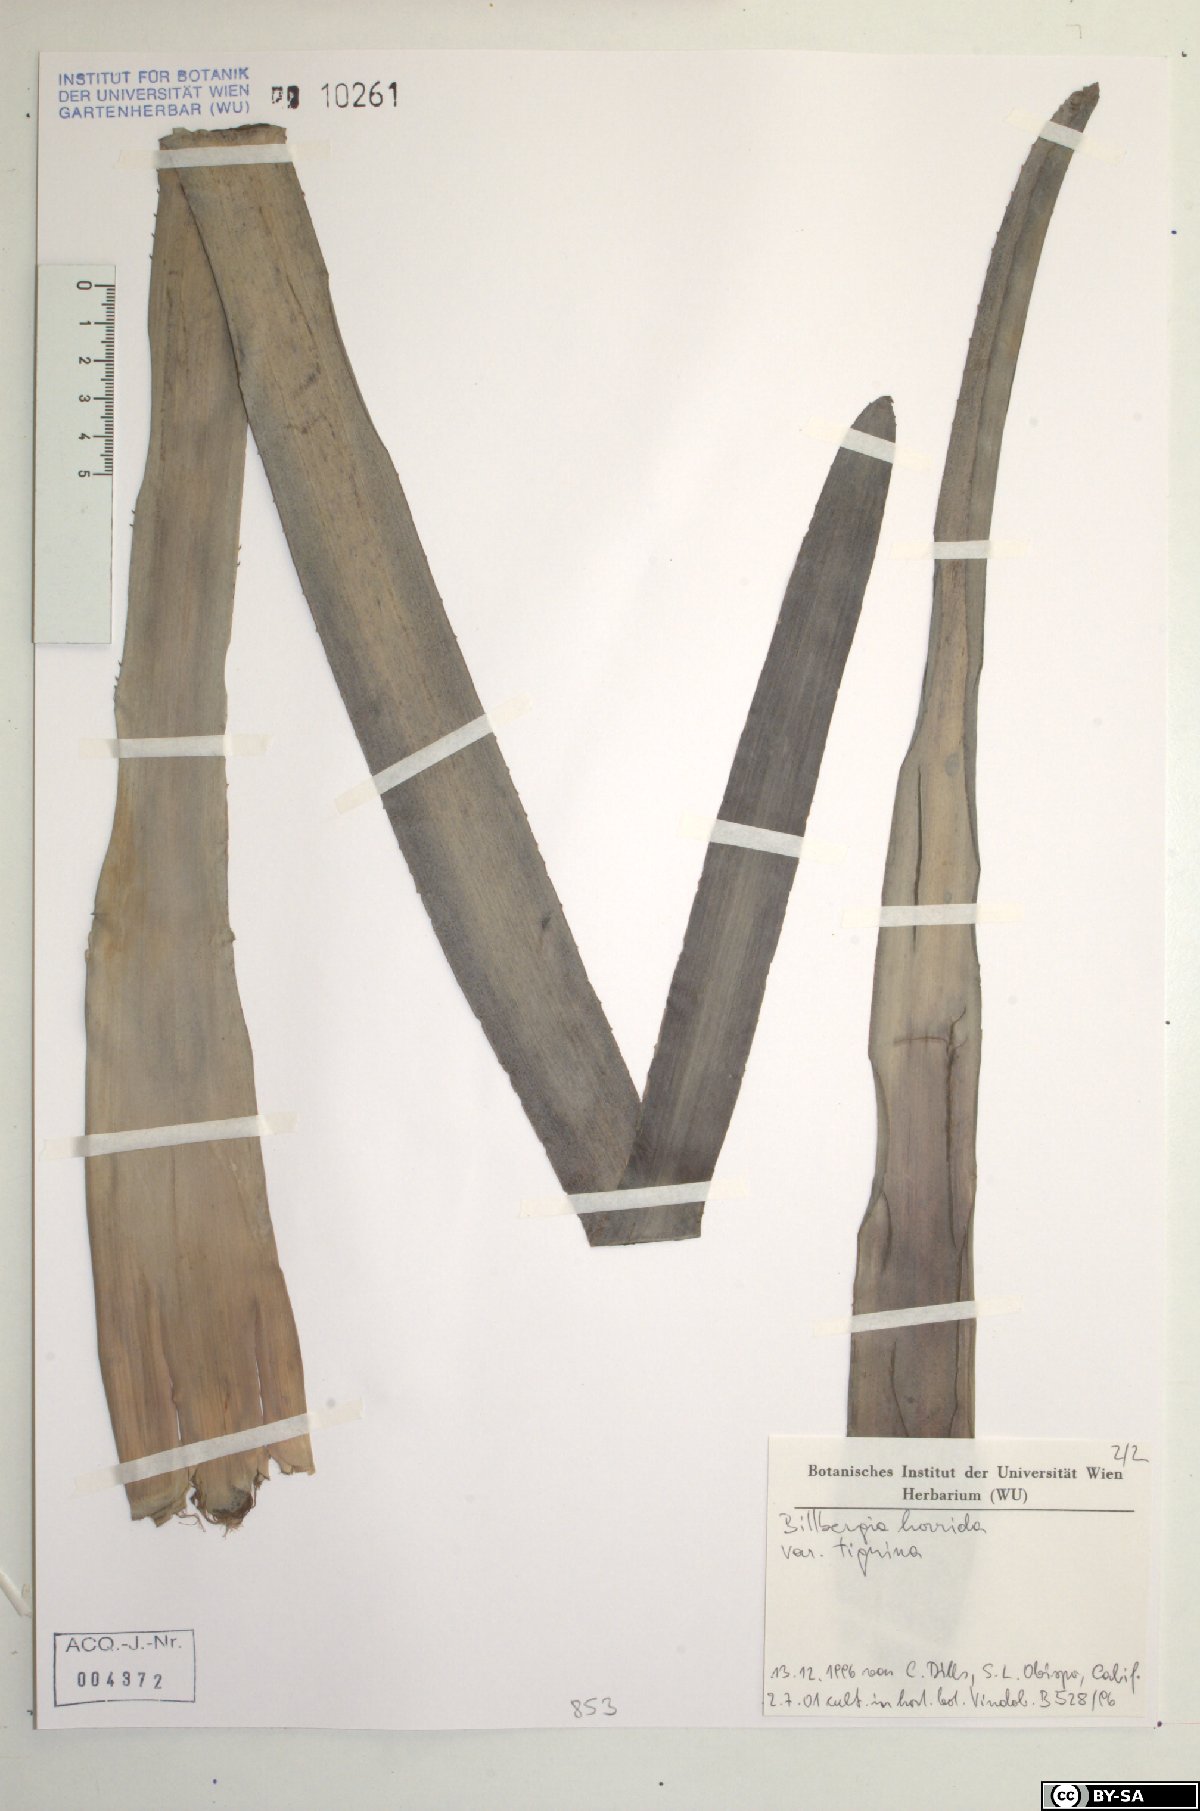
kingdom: Plantae
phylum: Tracheophyta
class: Liliopsida
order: Poales
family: Bromeliaceae
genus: Billbergia
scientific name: Billbergia horrida
